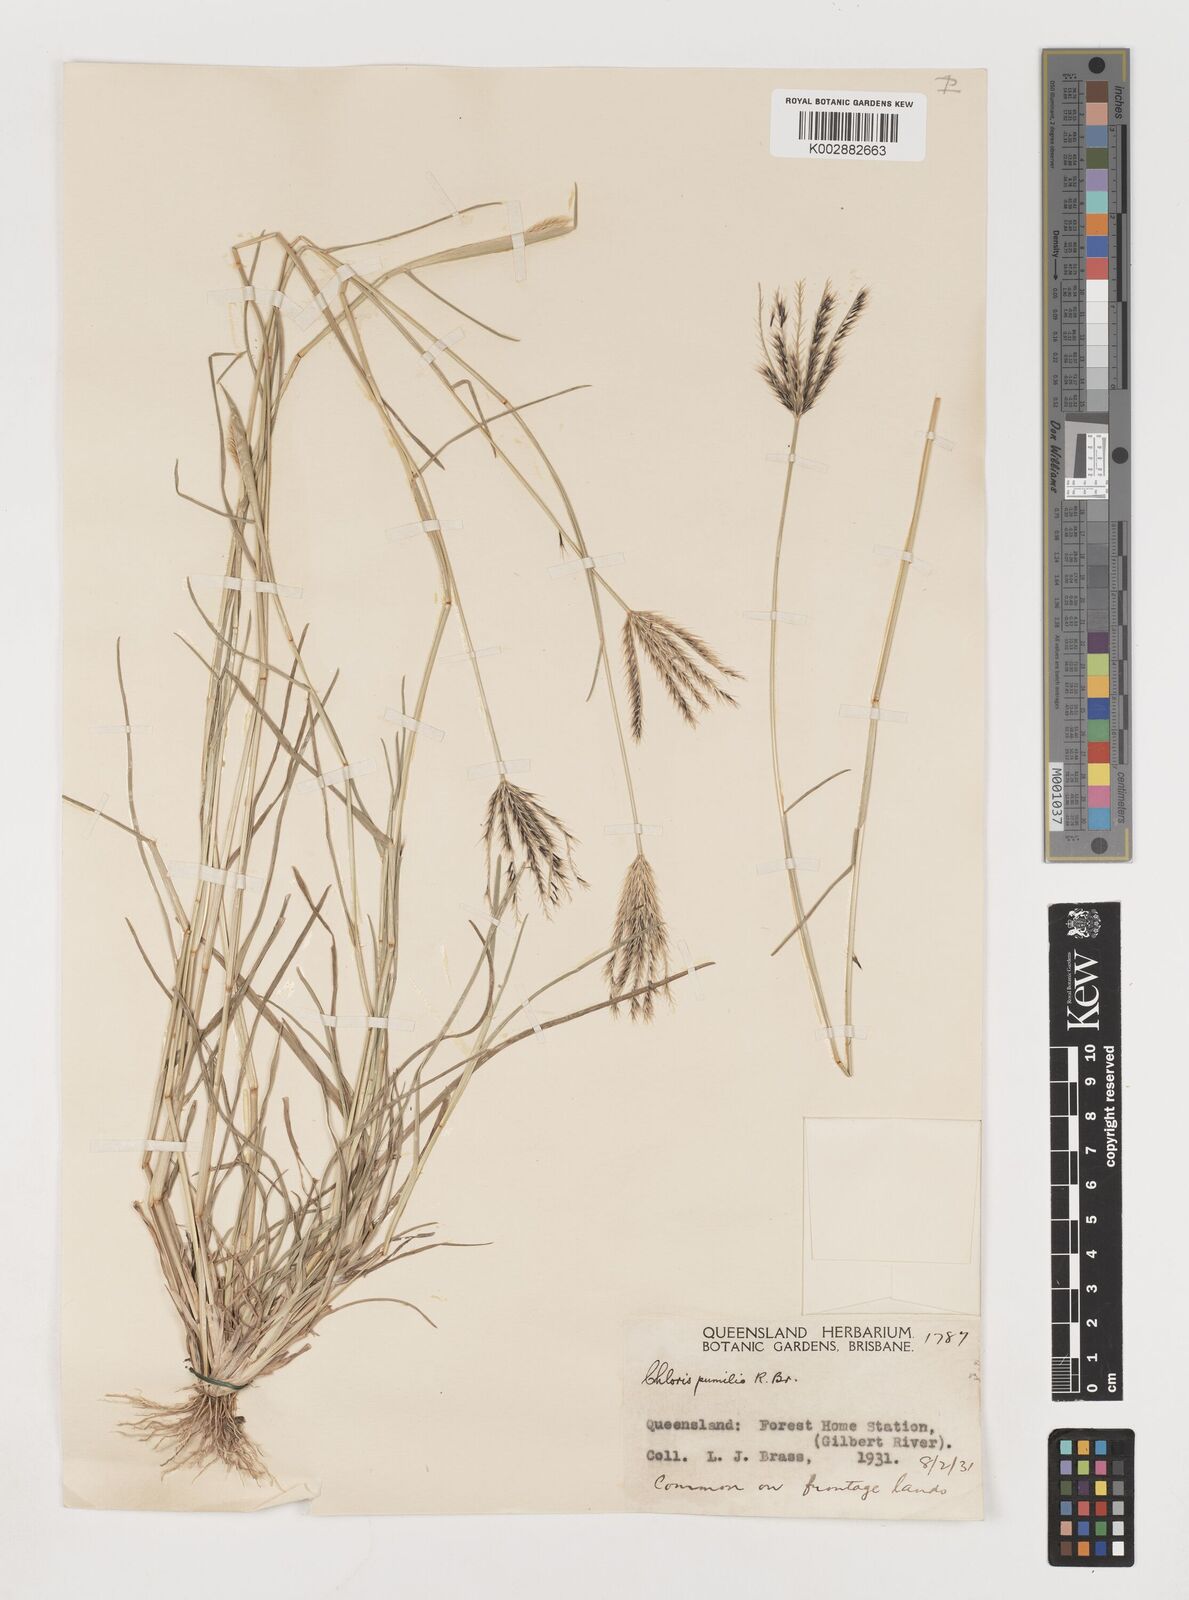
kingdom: Plantae
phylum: Tracheophyta
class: Liliopsida
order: Poales
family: Poaceae
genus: Chloris
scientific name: Chloris lobata
